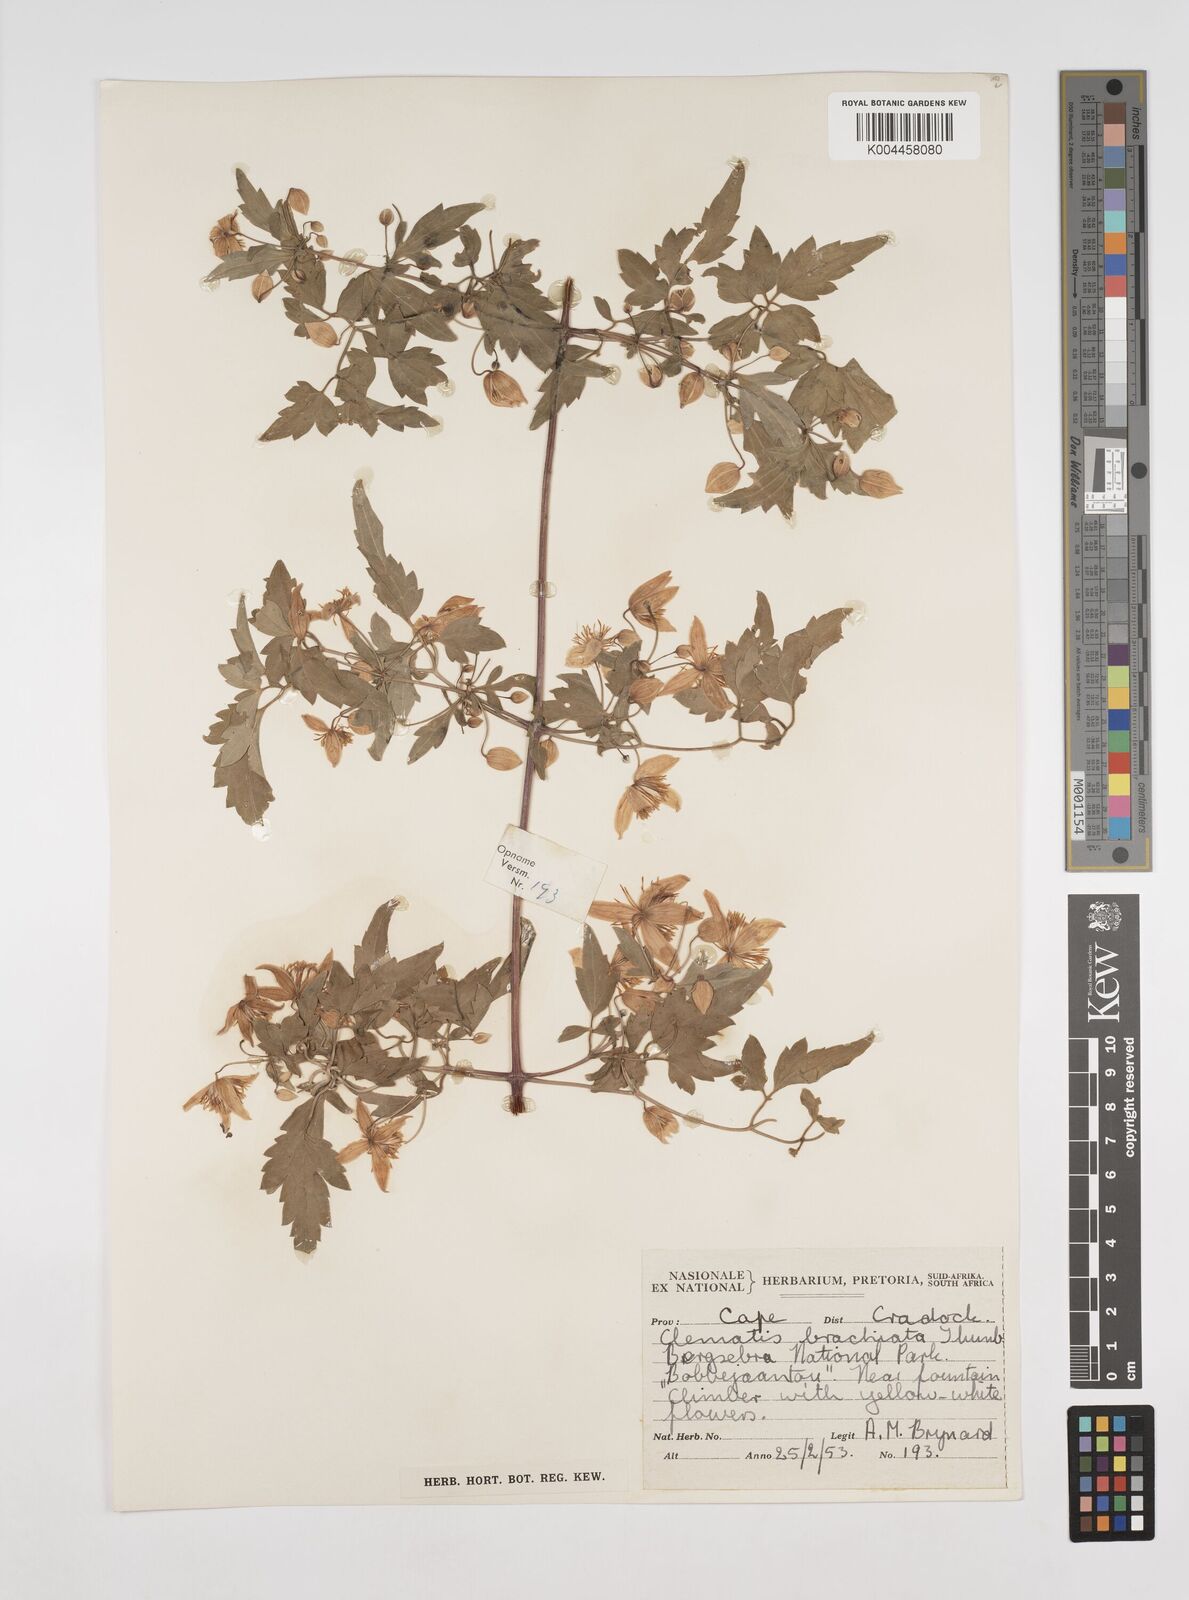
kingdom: Plantae
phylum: Tracheophyta
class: Magnoliopsida
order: Ranunculales
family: Ranunculaceae
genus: Clematis
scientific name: Clematis brachiata
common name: Traveler's-joy
